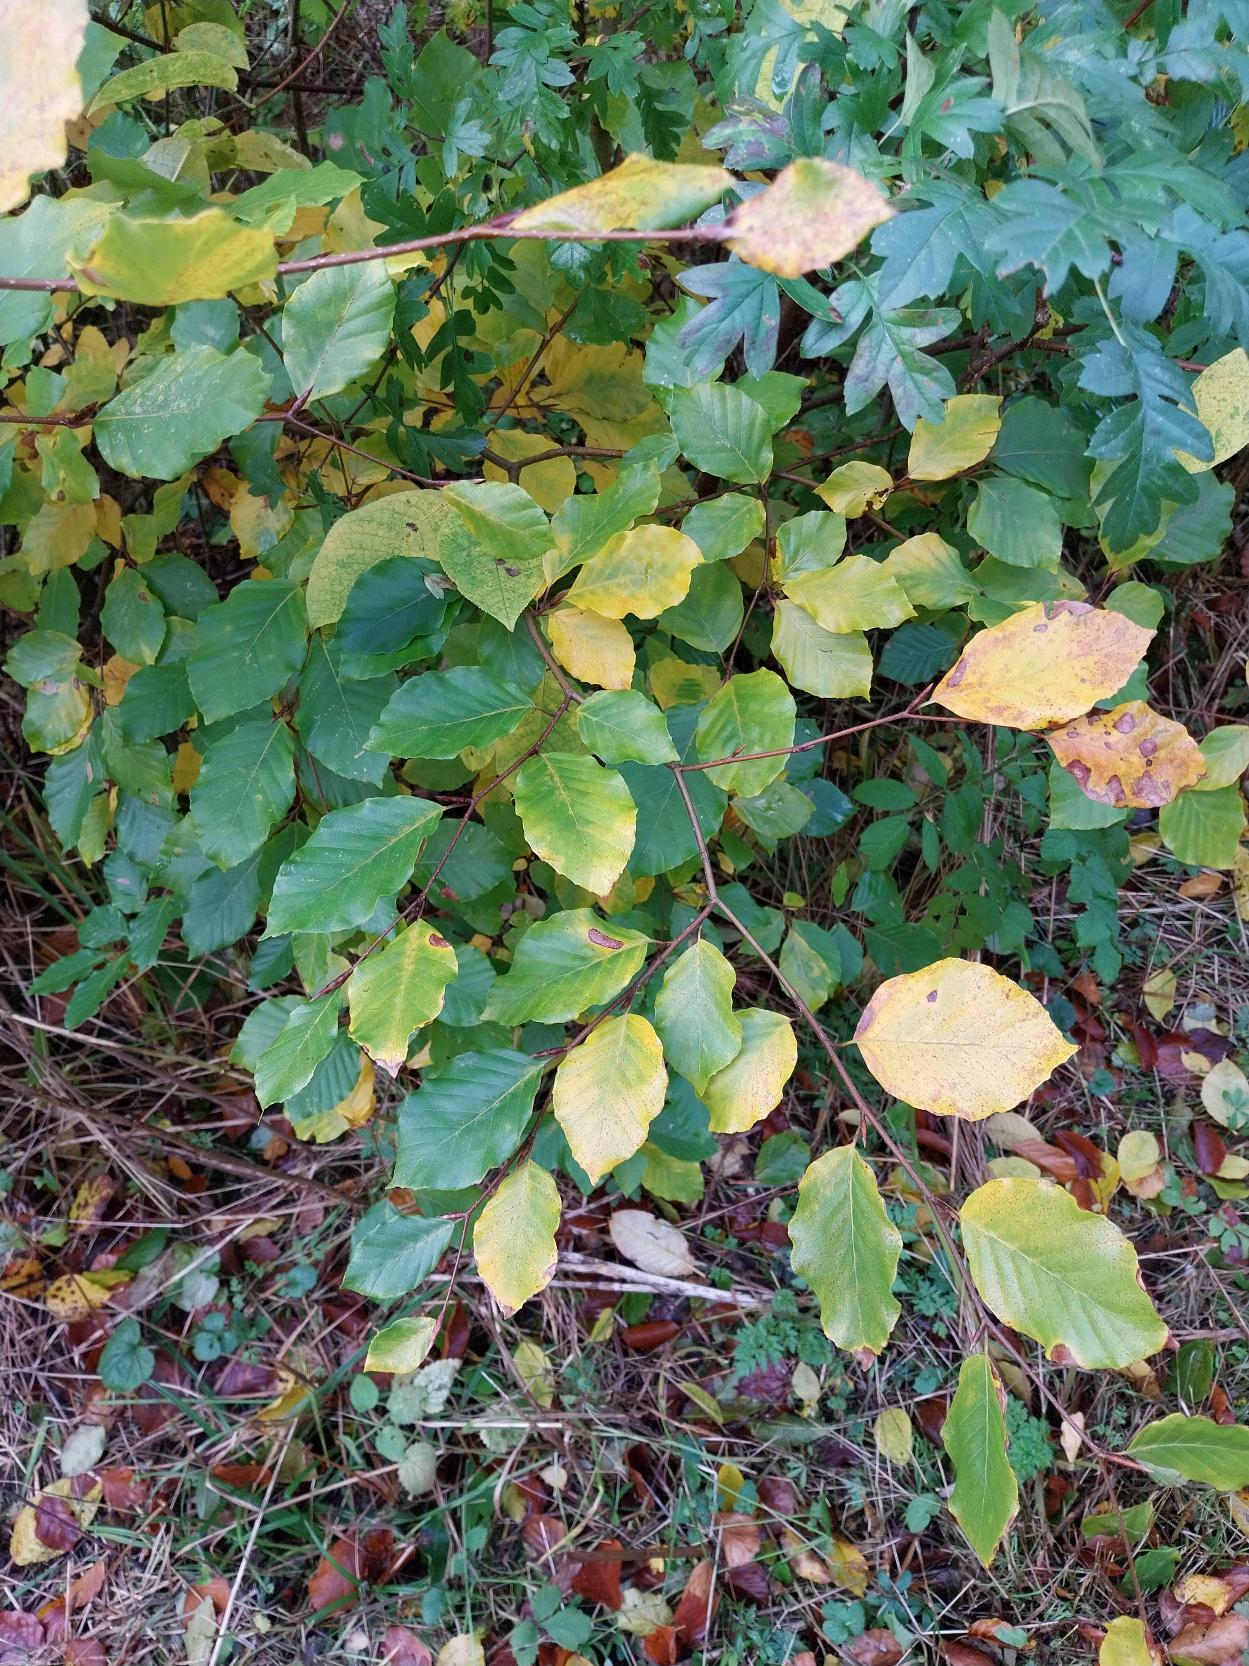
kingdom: Plantae
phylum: Tracheophyta
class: Magnoliopsida
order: Fagales
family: Fagaceae
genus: Fagus
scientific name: Fagus sylvatica
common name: Bøg
